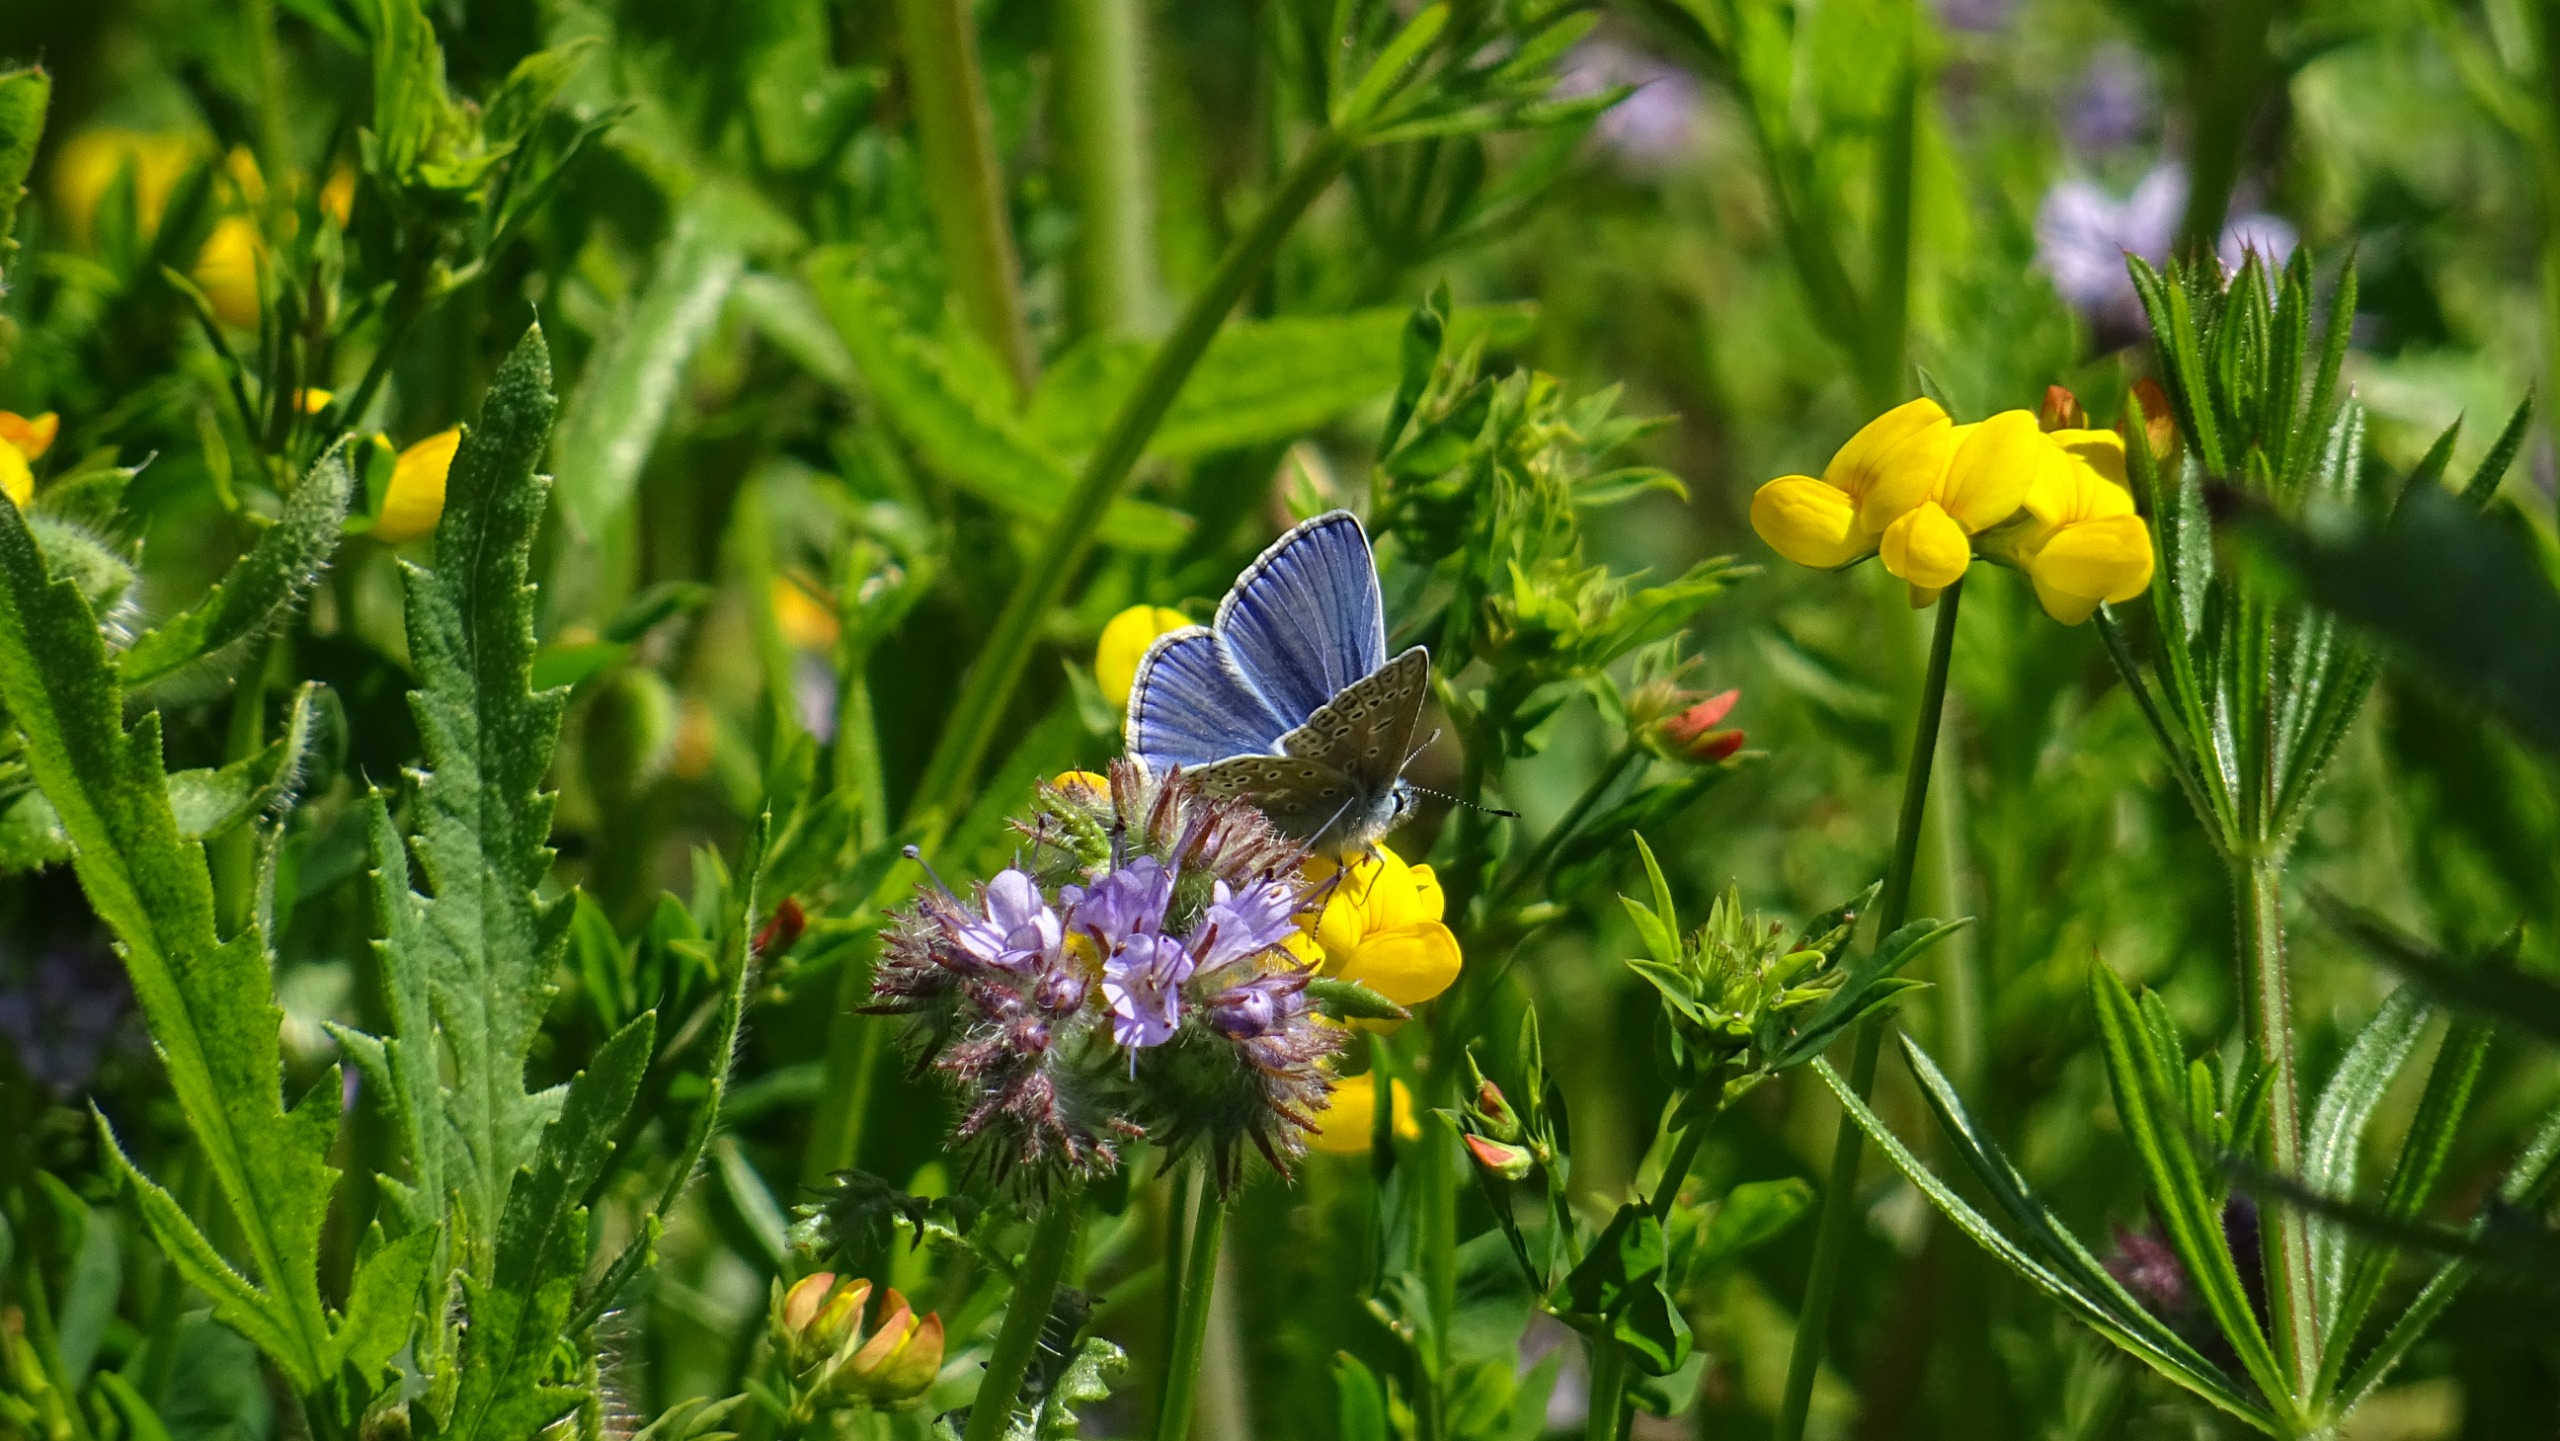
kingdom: Animalia
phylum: Arthropoda
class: Insecta
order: Lepidoptera
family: Lycaenidae
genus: Polyommatus
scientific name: Polyommatus icarus
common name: Almindelig blåfugl
